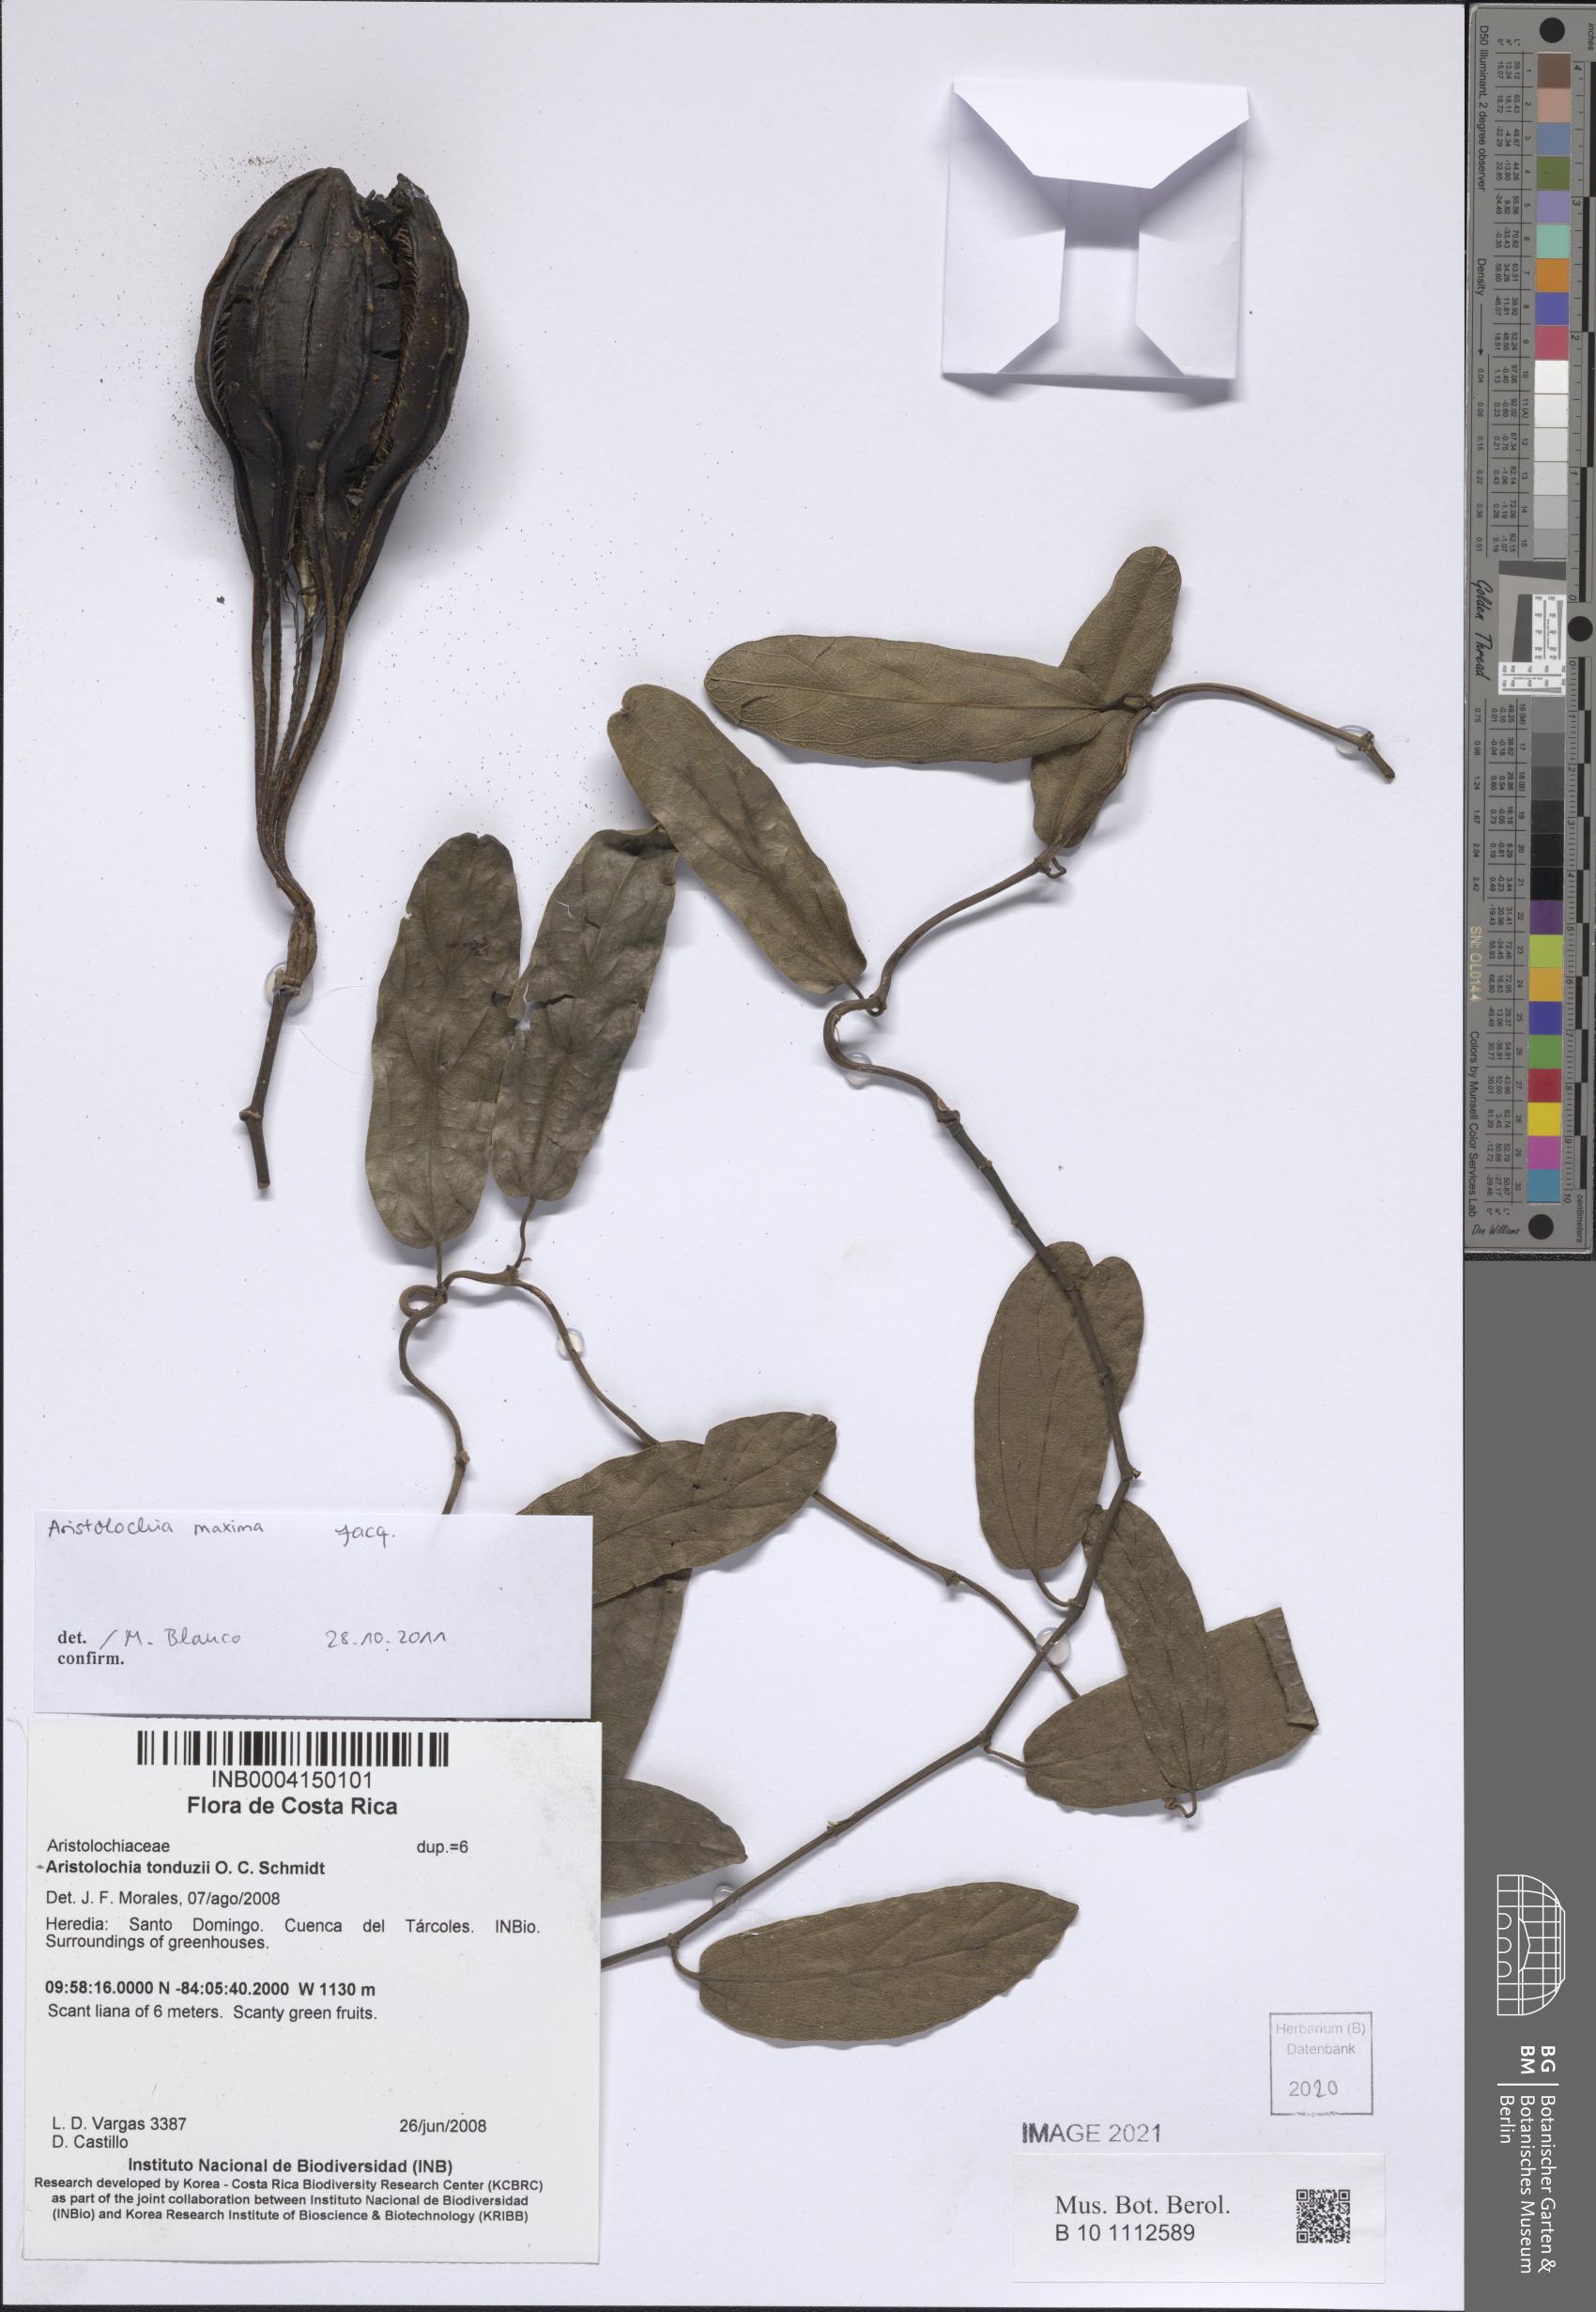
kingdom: Plantae
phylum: Tracheophyta
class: Magnoliopsida
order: Piperales
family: Aristolochiaceae
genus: Aristolochia
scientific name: Aristolochia maxima
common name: Florida dutchman's pipe
